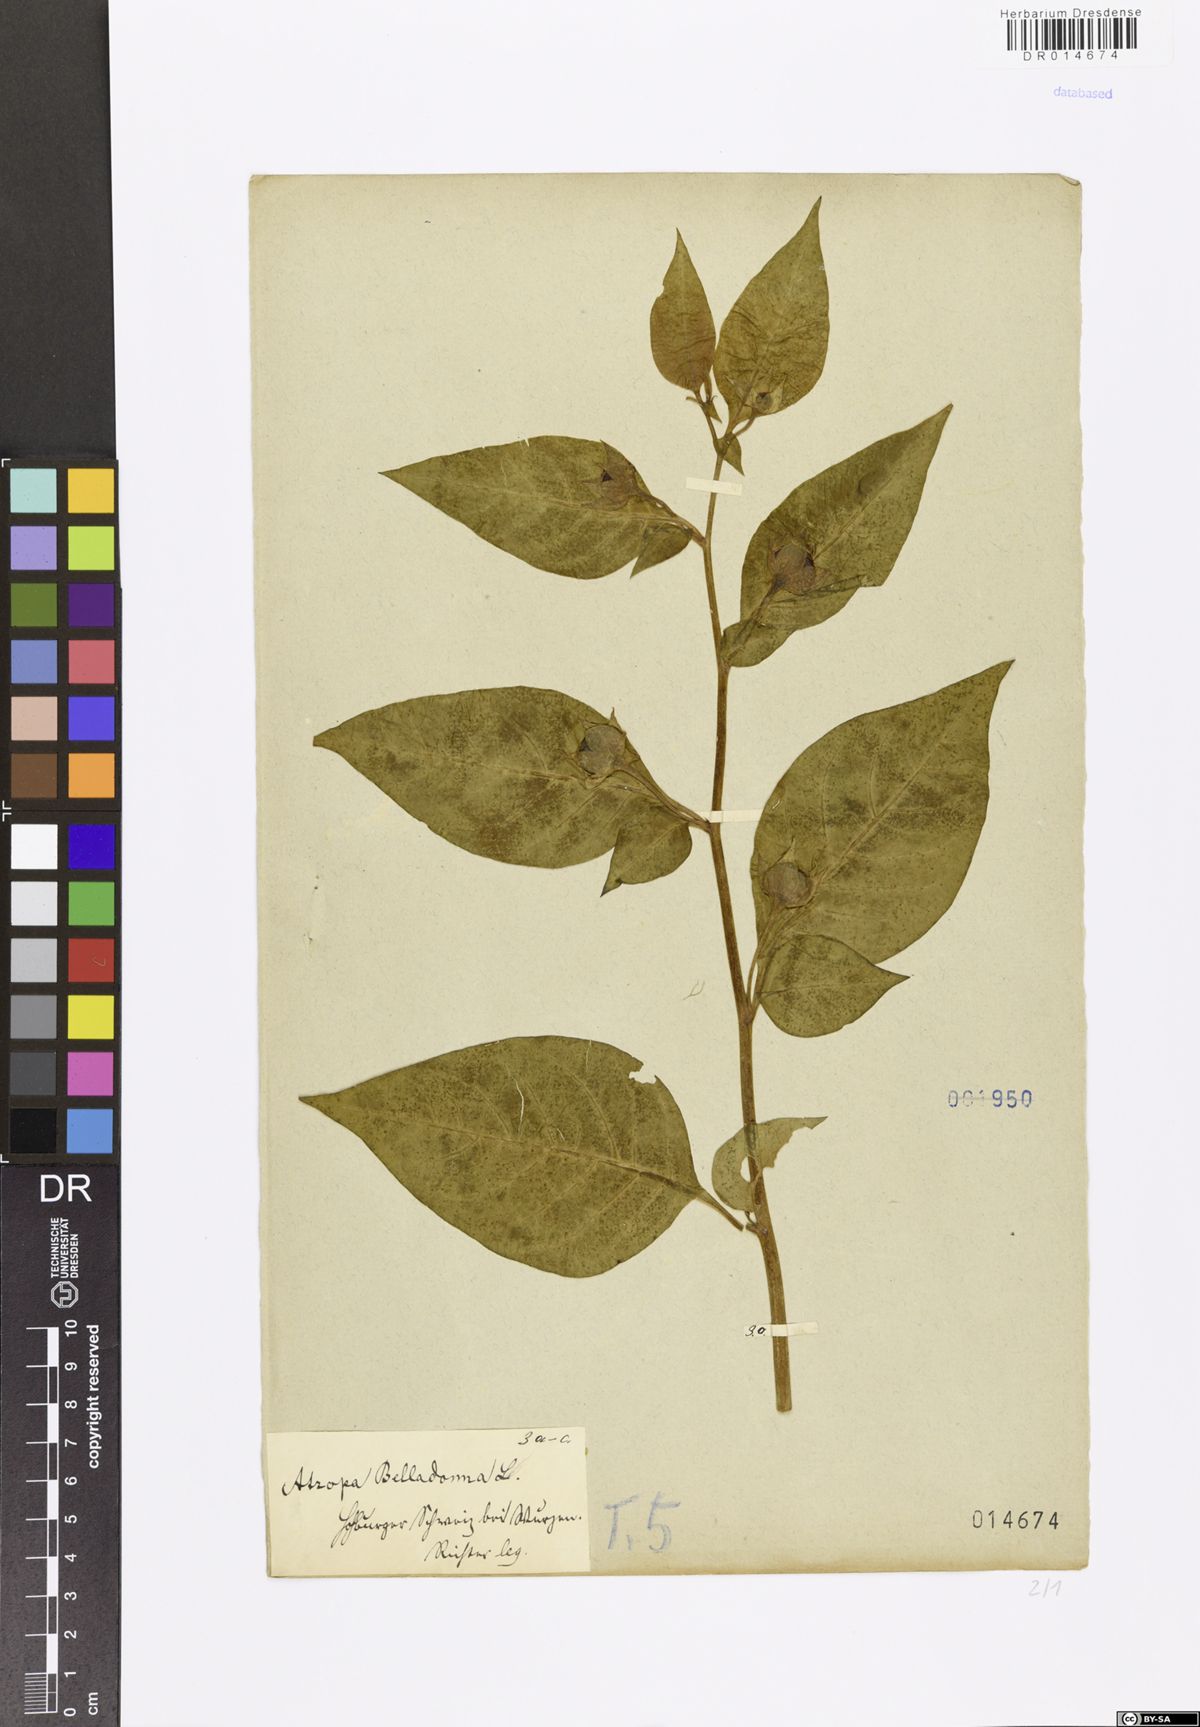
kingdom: Plantae
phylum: Tracheophyta
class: Magnoliopsida
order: Solanales
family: Solanaceae
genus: Atropa
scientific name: Atropa belladonna
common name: Deadly nightshade
